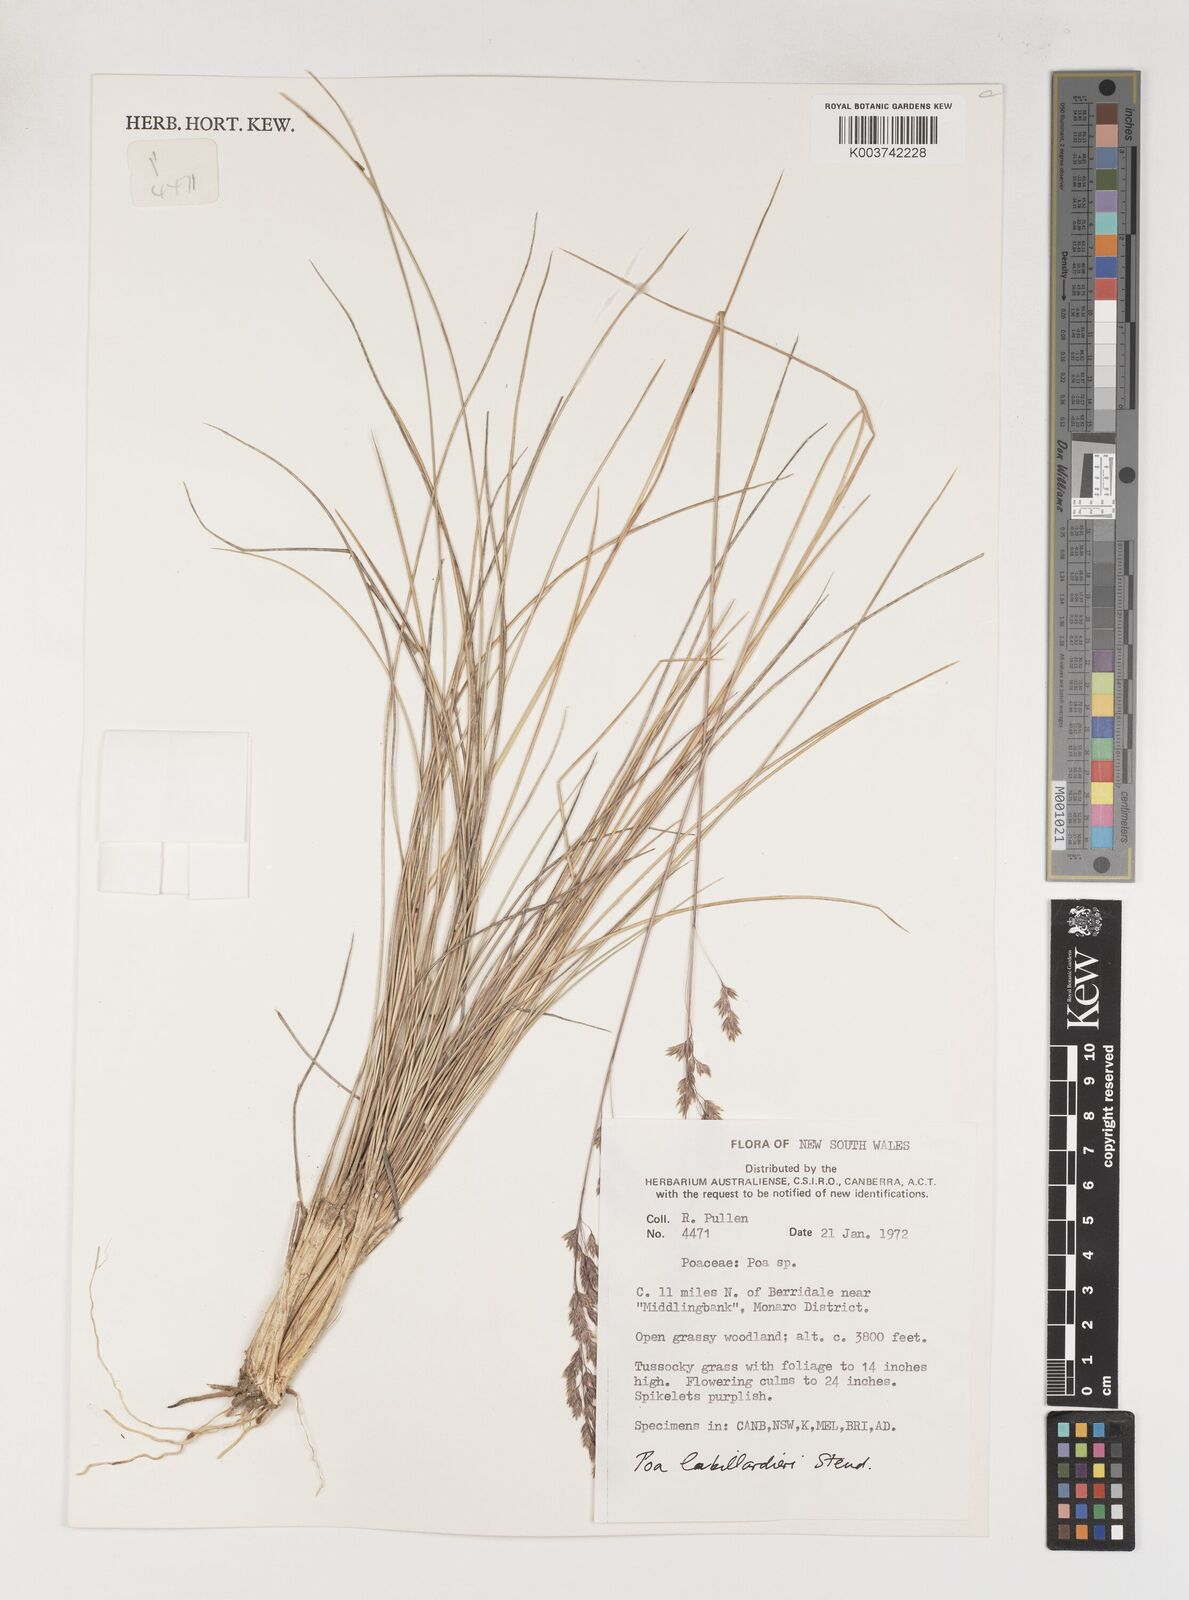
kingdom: Plantae
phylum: Tracheophyta
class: Liliopsida
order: Poales
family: Poaceae
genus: Poa
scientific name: Poa labillardierei
